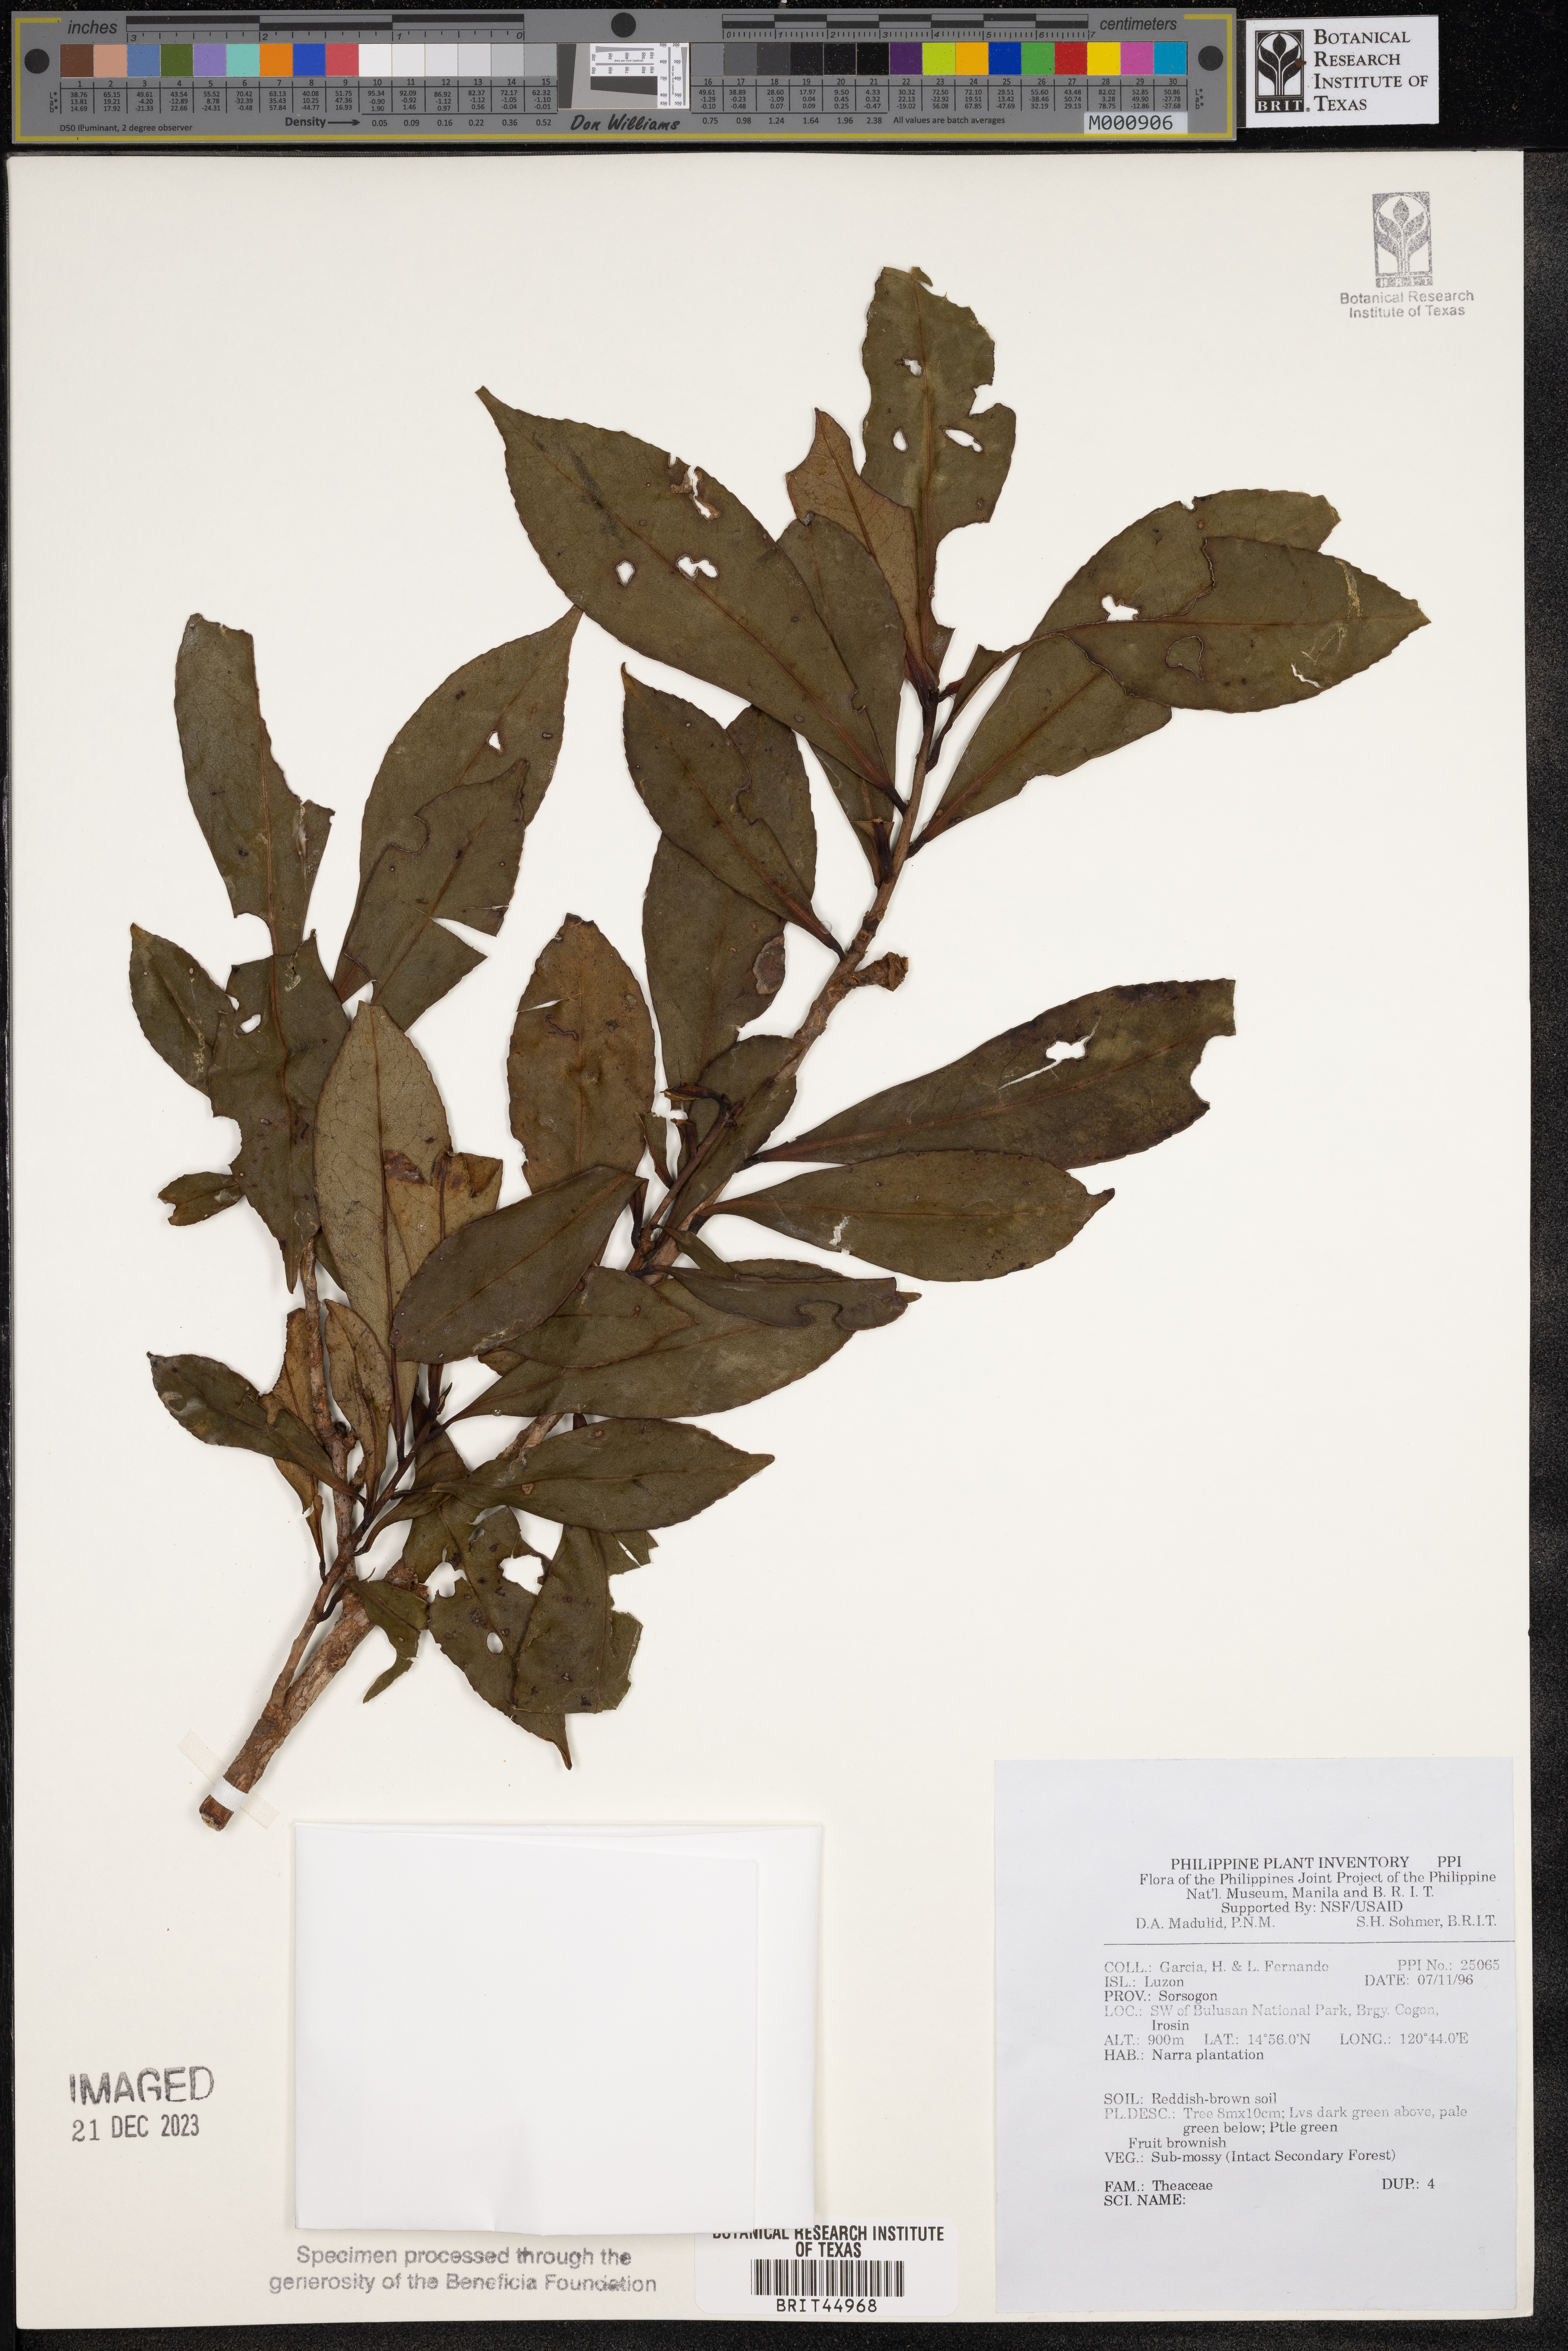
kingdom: Plantae
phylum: Tracheophyta
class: Magnoliopsida
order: Ericales
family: Theaceae
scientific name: Theaceae
